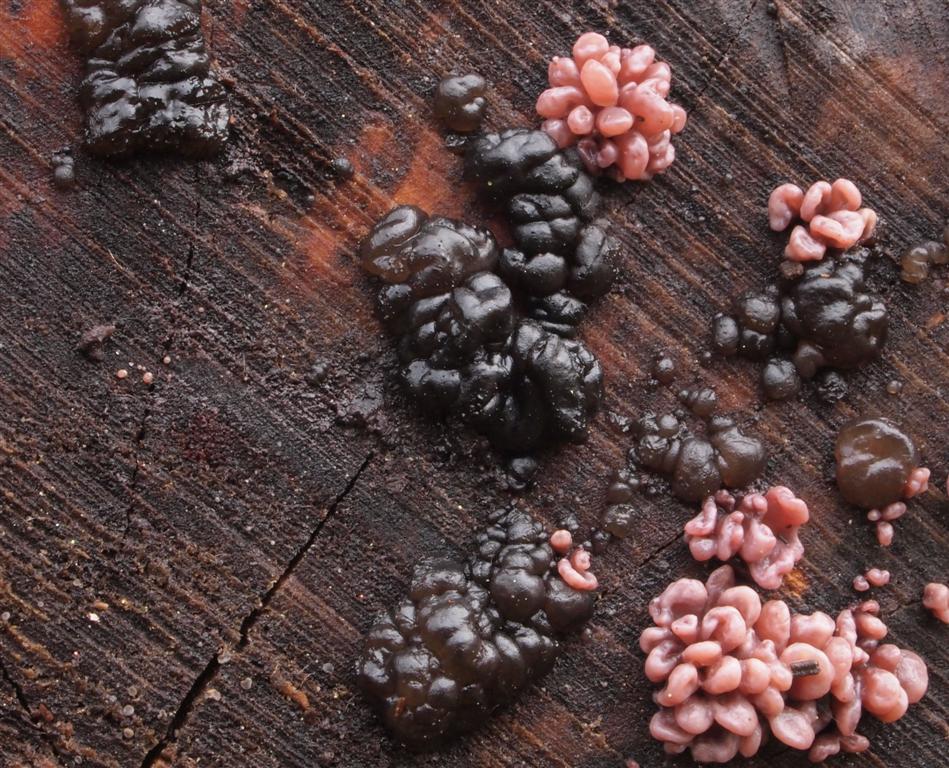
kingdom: Fungi
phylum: Basidiomycota
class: Agaricomycetes
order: Auriculariales
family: Auriculariaceae
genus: Exidia
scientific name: Exidia nigricans
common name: almindelig bævretop
